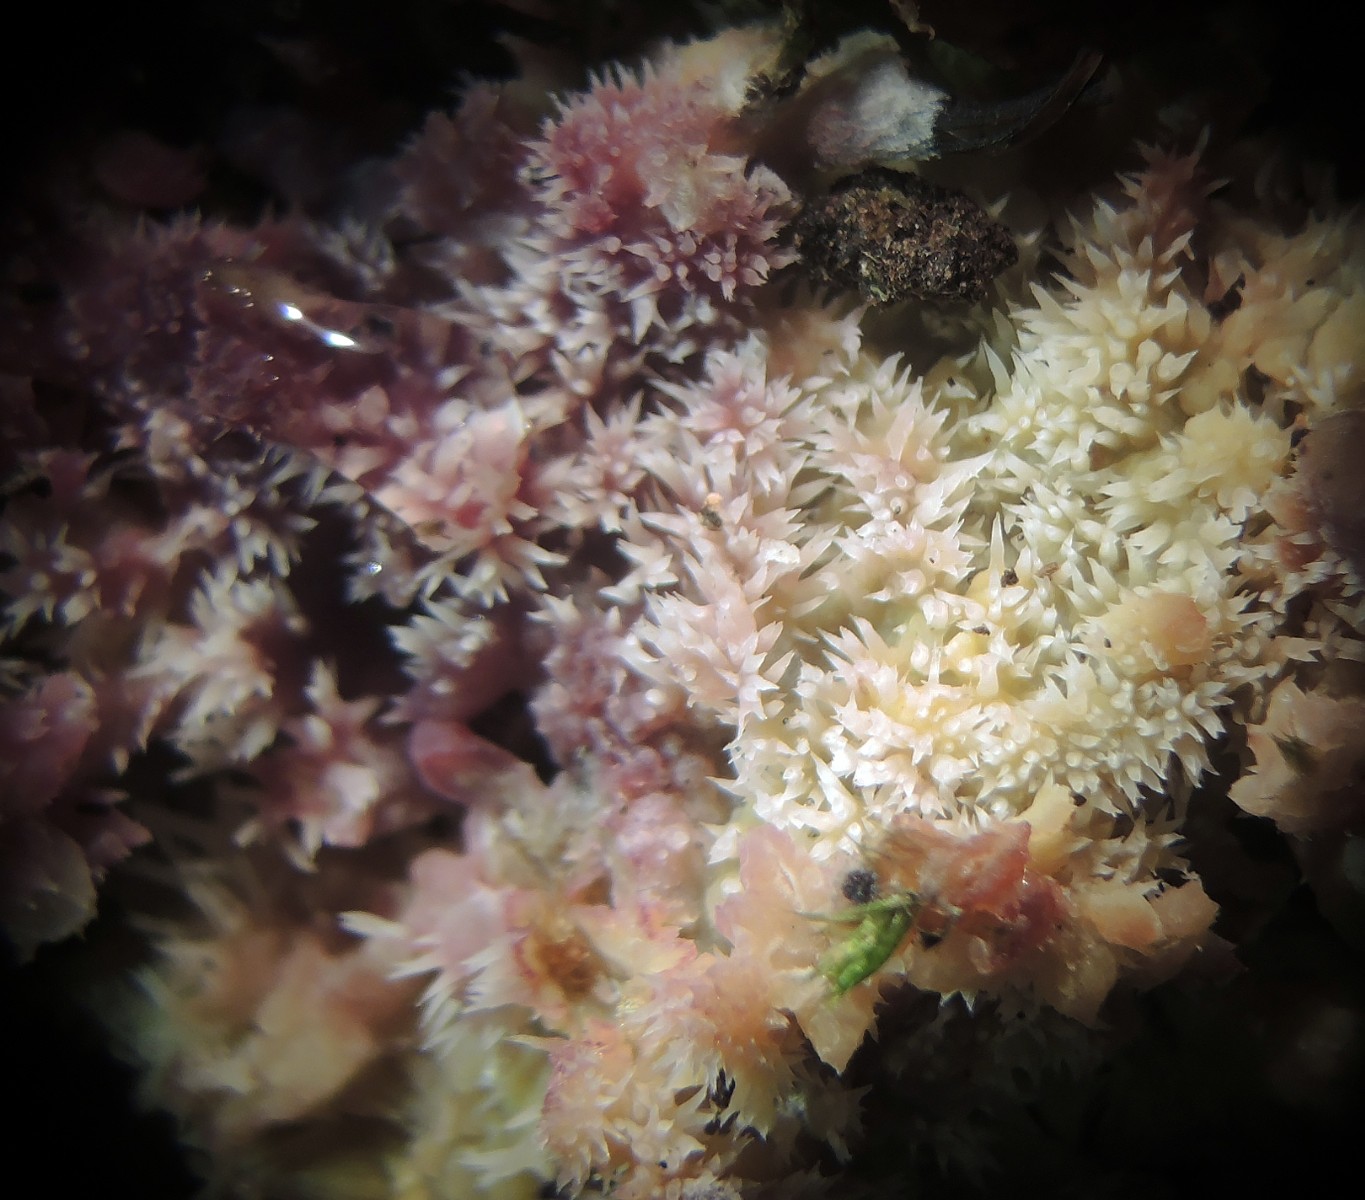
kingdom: Fungi
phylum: Basidiomycota
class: Agaricomycetes
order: Polyporales
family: Meruliaceae
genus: Mycoacia
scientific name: Mycoacia uda
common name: citrongul vokspig
